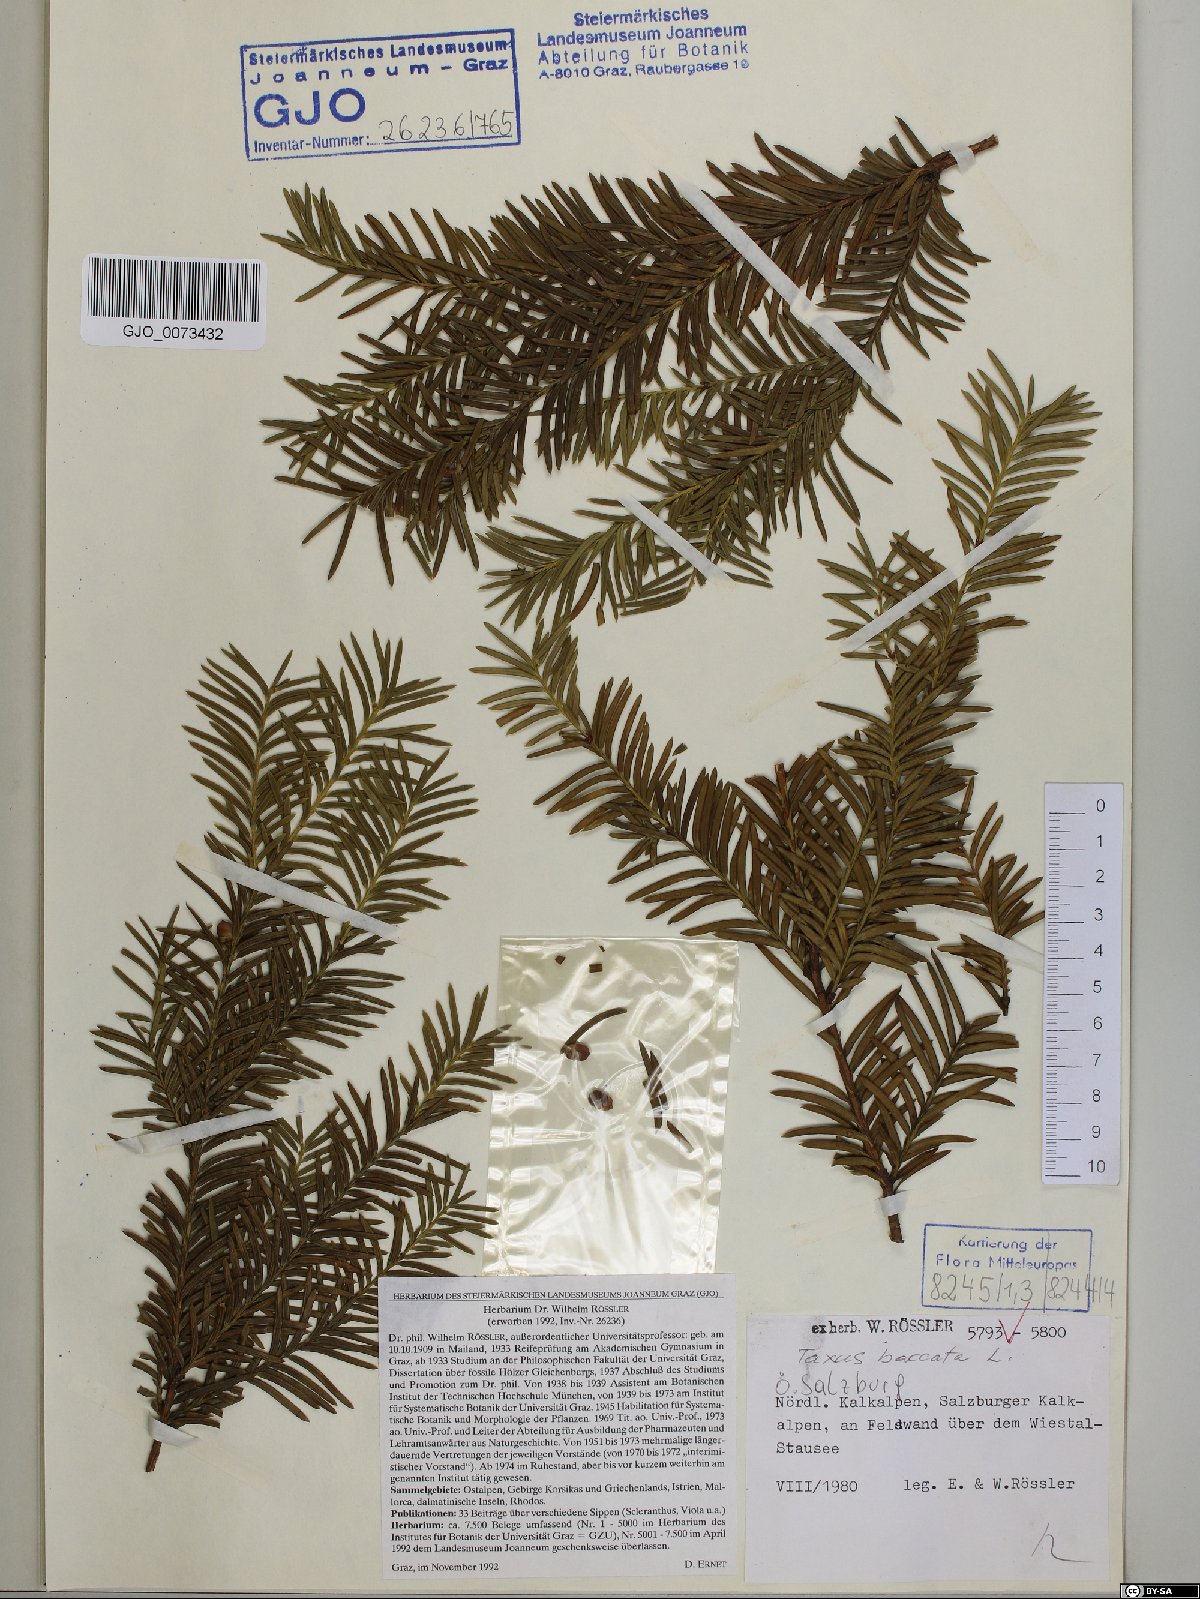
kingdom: Plantae
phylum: Tracheophyta
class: Pinopsida
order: Pinales
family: Taxaceae
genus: Taxus
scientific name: Taxus baccata
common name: Yew
